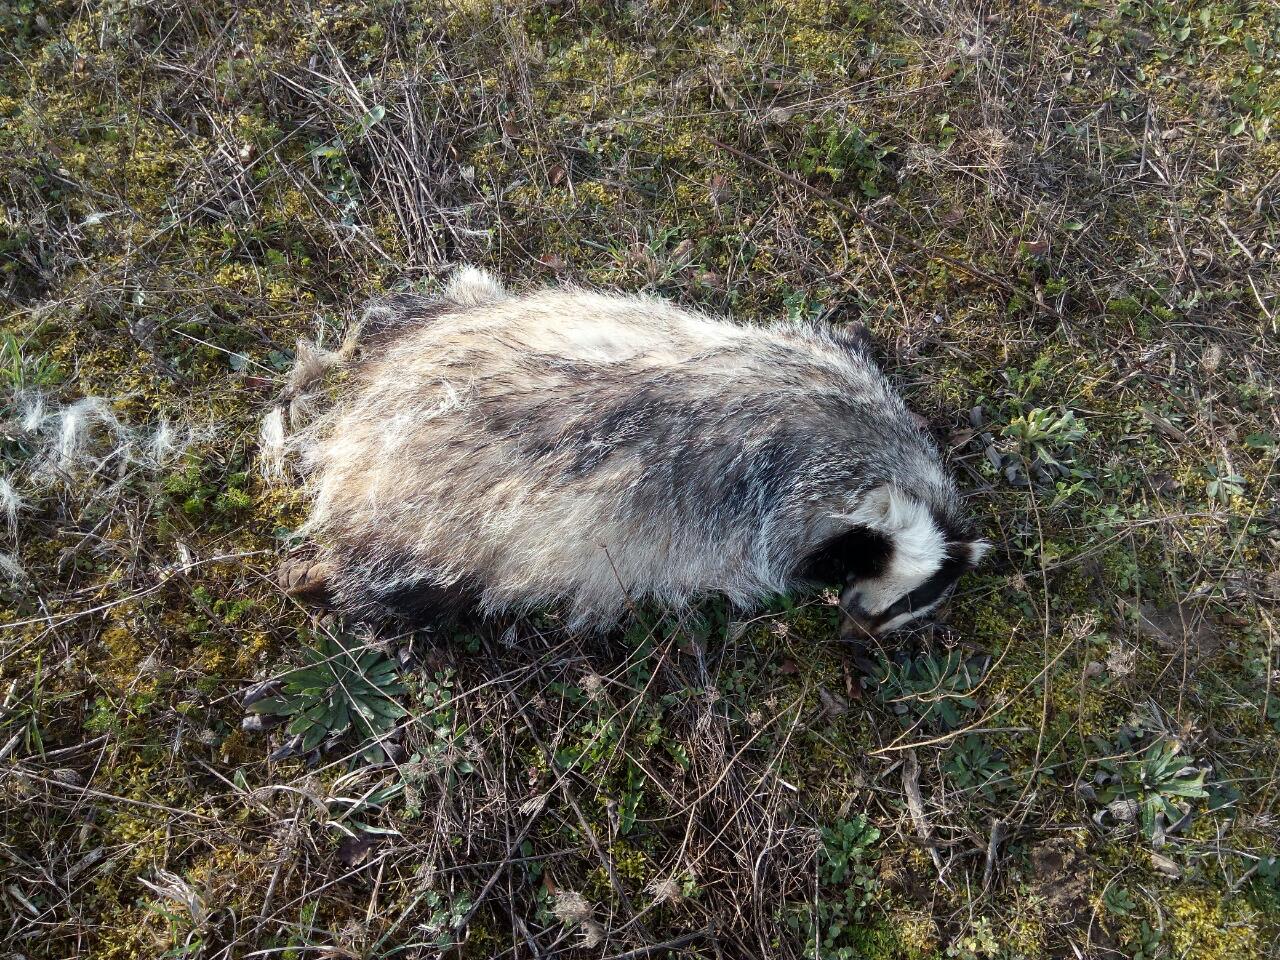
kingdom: Animalia
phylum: Chordata
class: Mammalia
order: Carnivora
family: Mustelidae
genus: Meles
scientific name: Meles meles
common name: Eurasian badger
